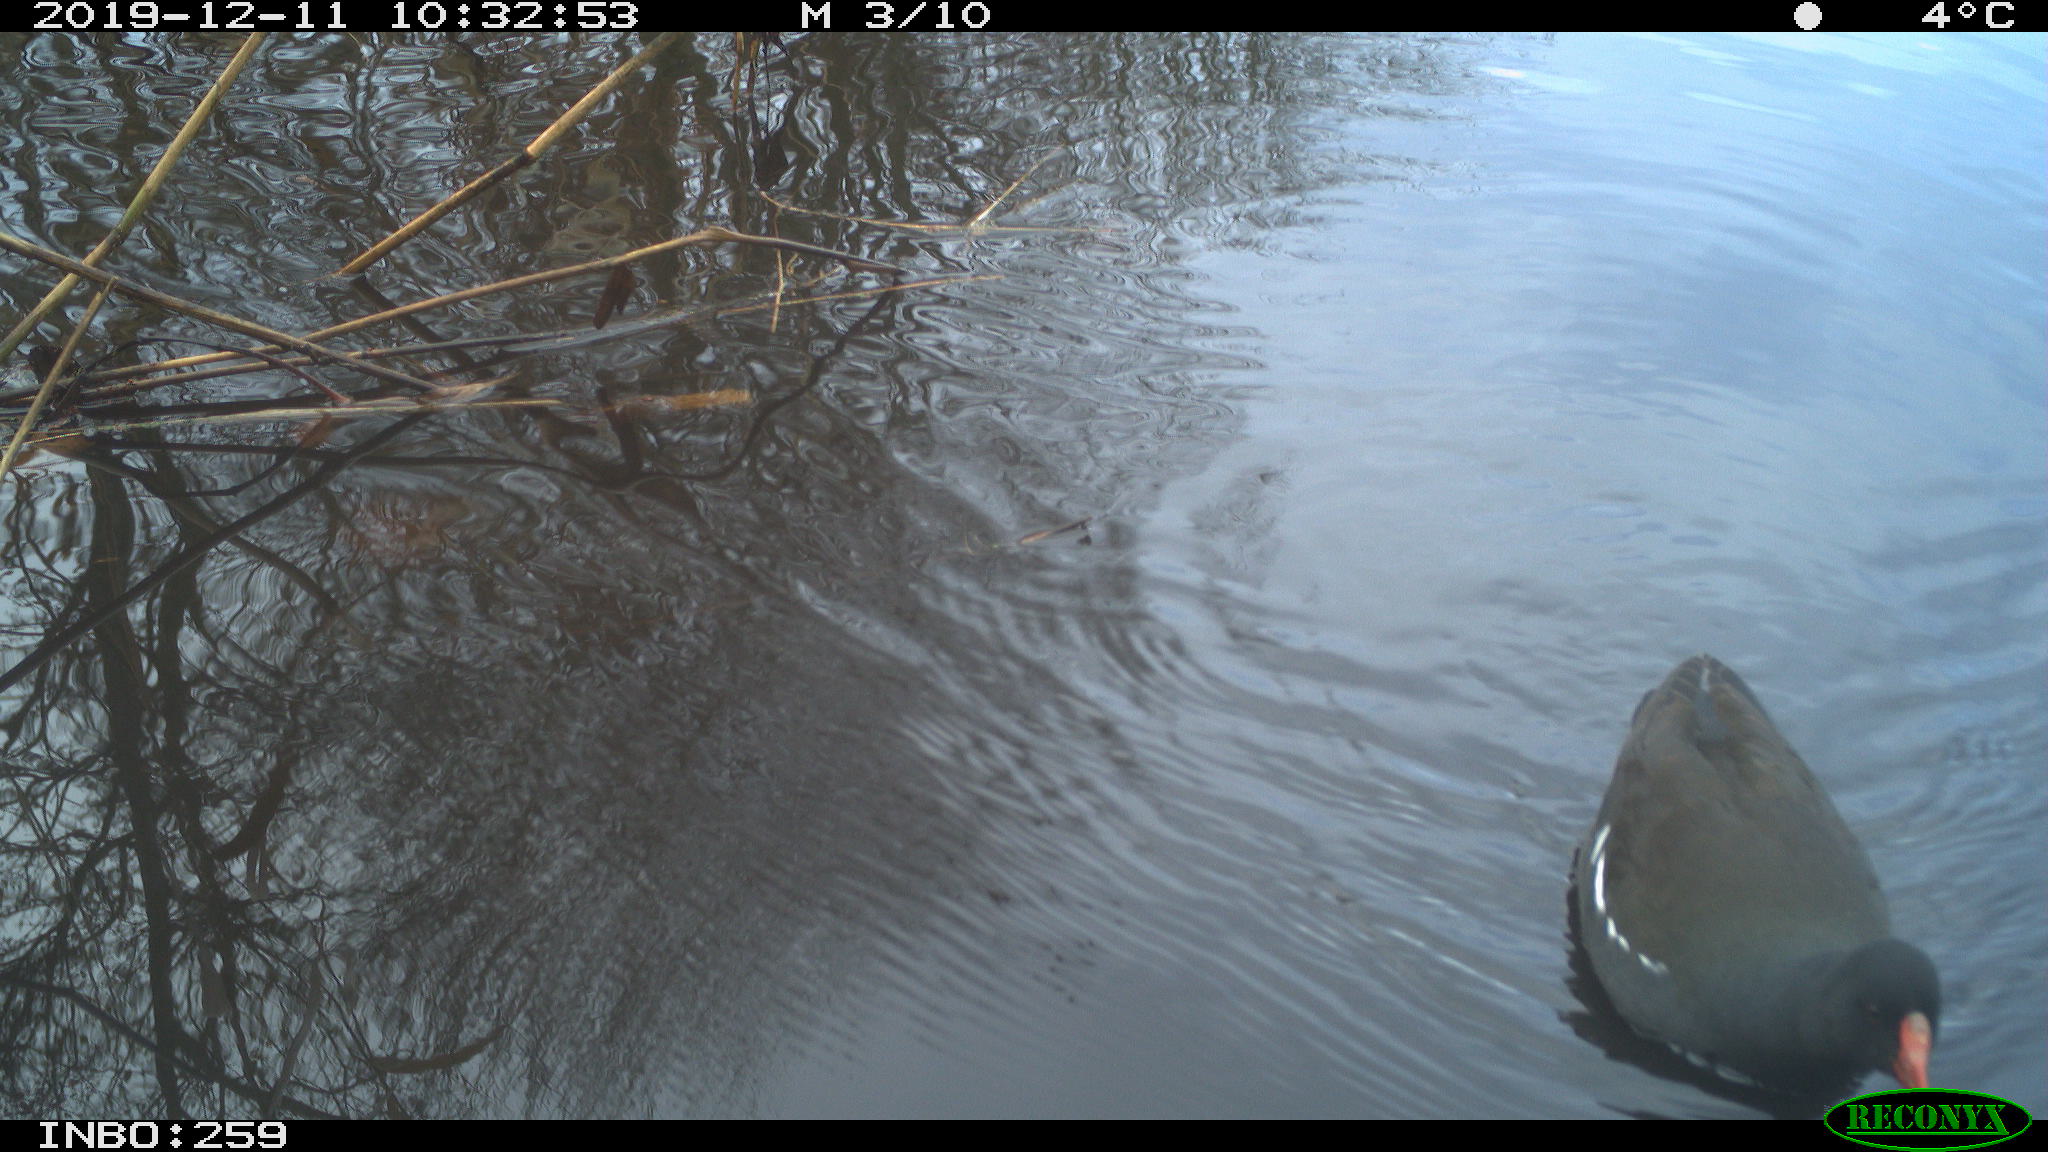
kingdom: Animalia
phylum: Chordata
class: Aves
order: Gruiformes
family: Rallidae
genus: Gallinula
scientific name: Gallinula chloropus
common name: Common moorhen
